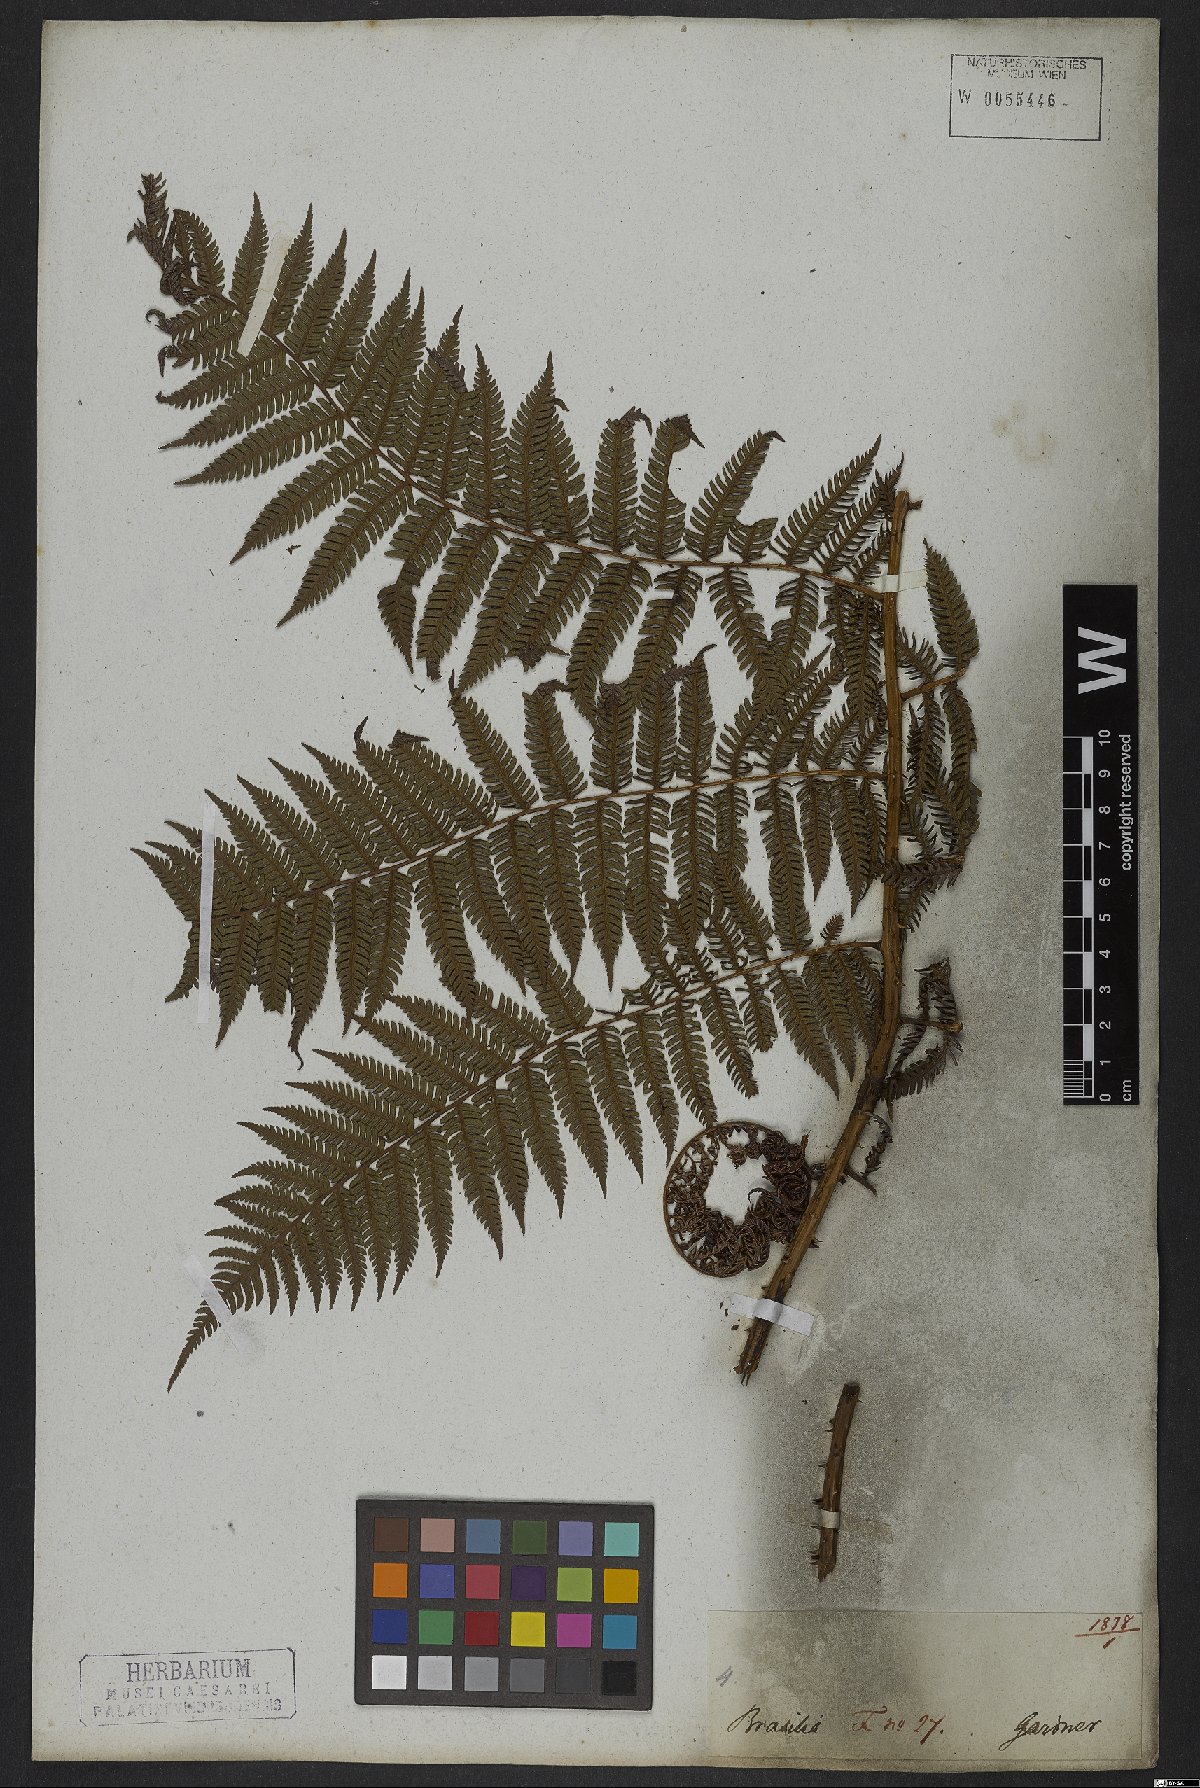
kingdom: Plantae
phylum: Tracheophyta
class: Polypodiopsida
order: Cyatheales
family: Cyatheaceae
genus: Cyathea
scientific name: Cyathea microdonta
